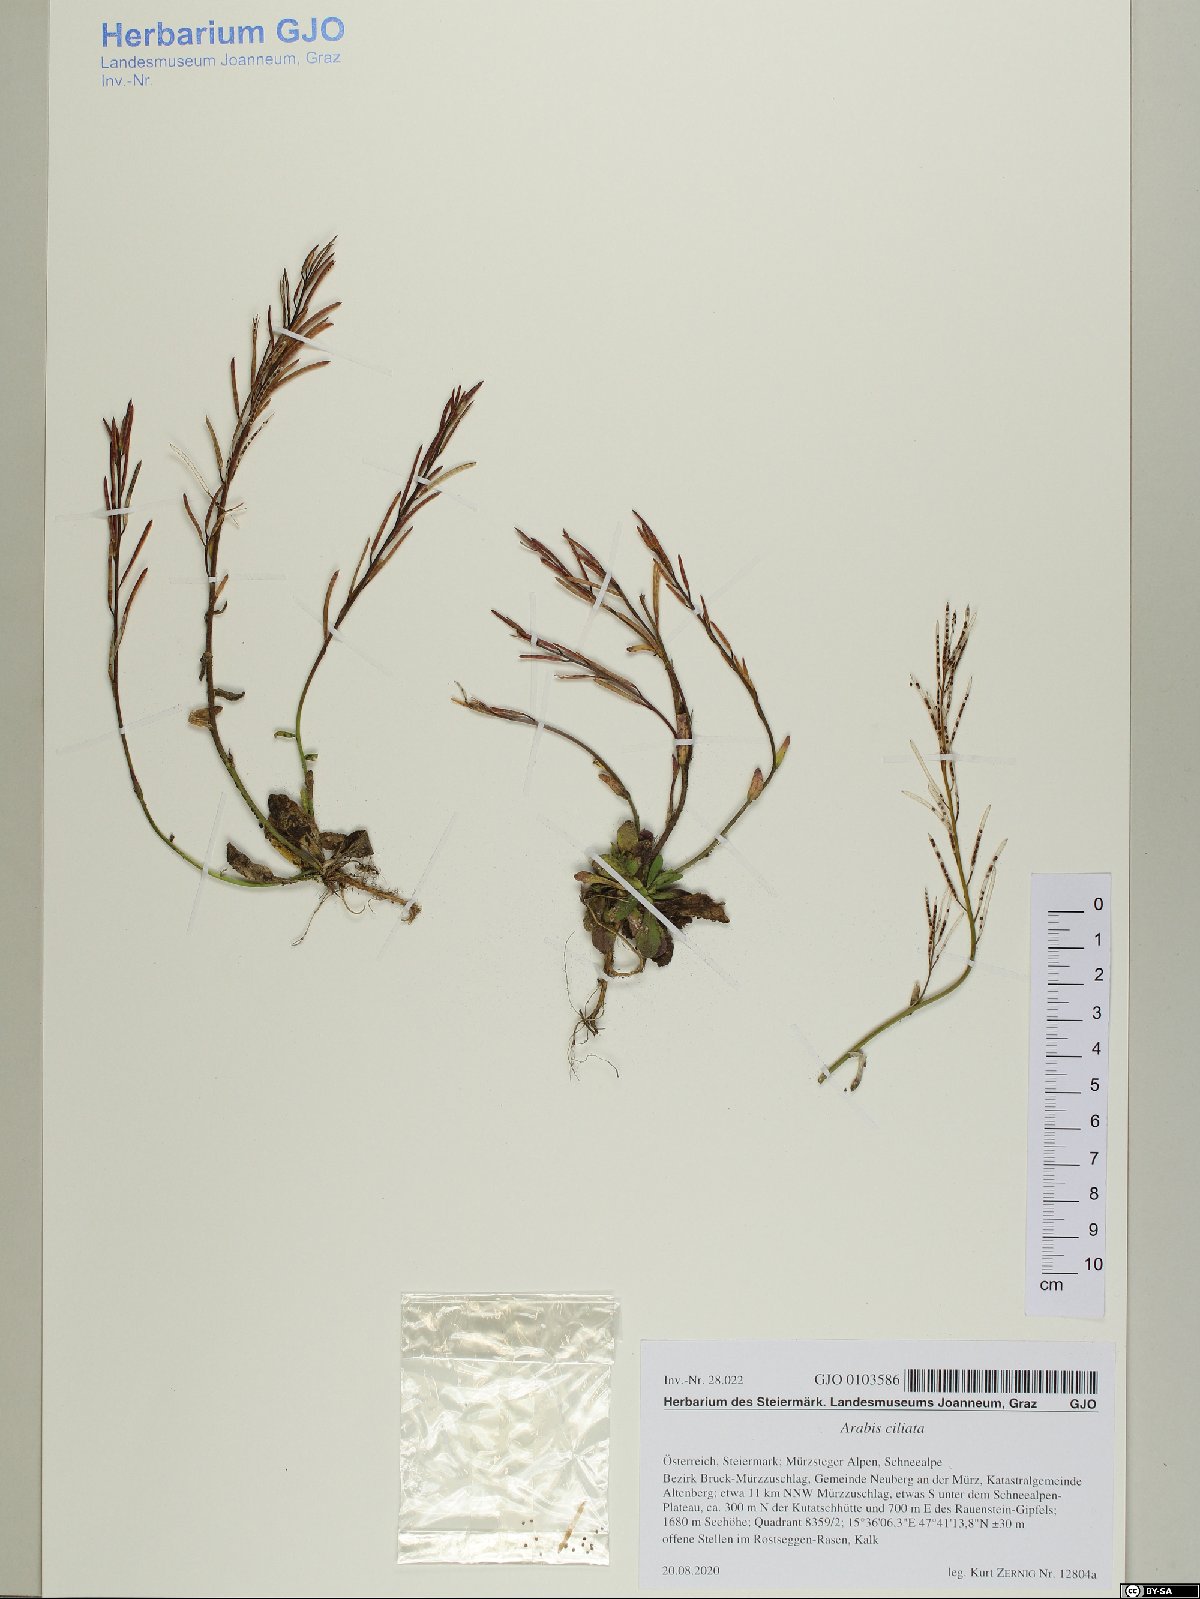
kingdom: Plantae
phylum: Tracheophyta
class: Magnoliopsida
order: Brassicales
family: Brassicaceae
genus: Arabis
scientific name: Arabis ciliata
